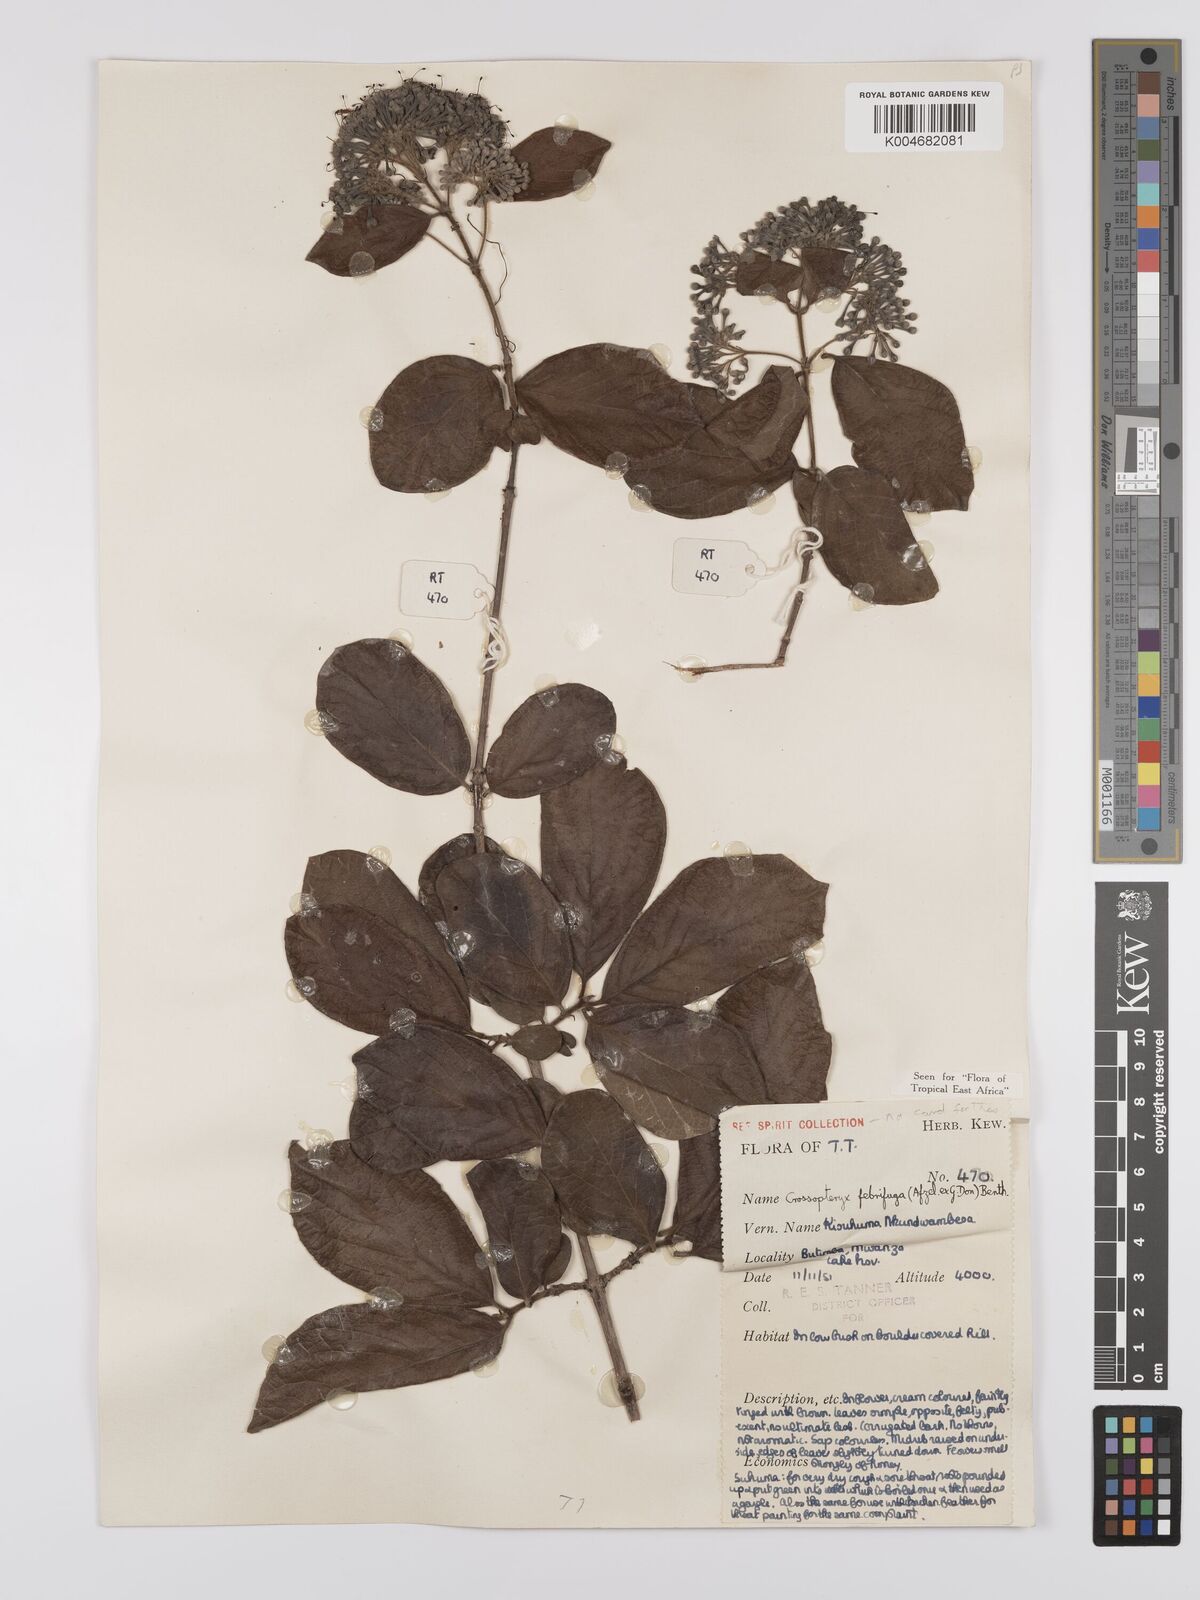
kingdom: Plantae
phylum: Tracheophyta
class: Magnoliopsida
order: Gentianales
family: Rubiaceae
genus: Crossopteryx
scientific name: Crossopteryx febrifuga
